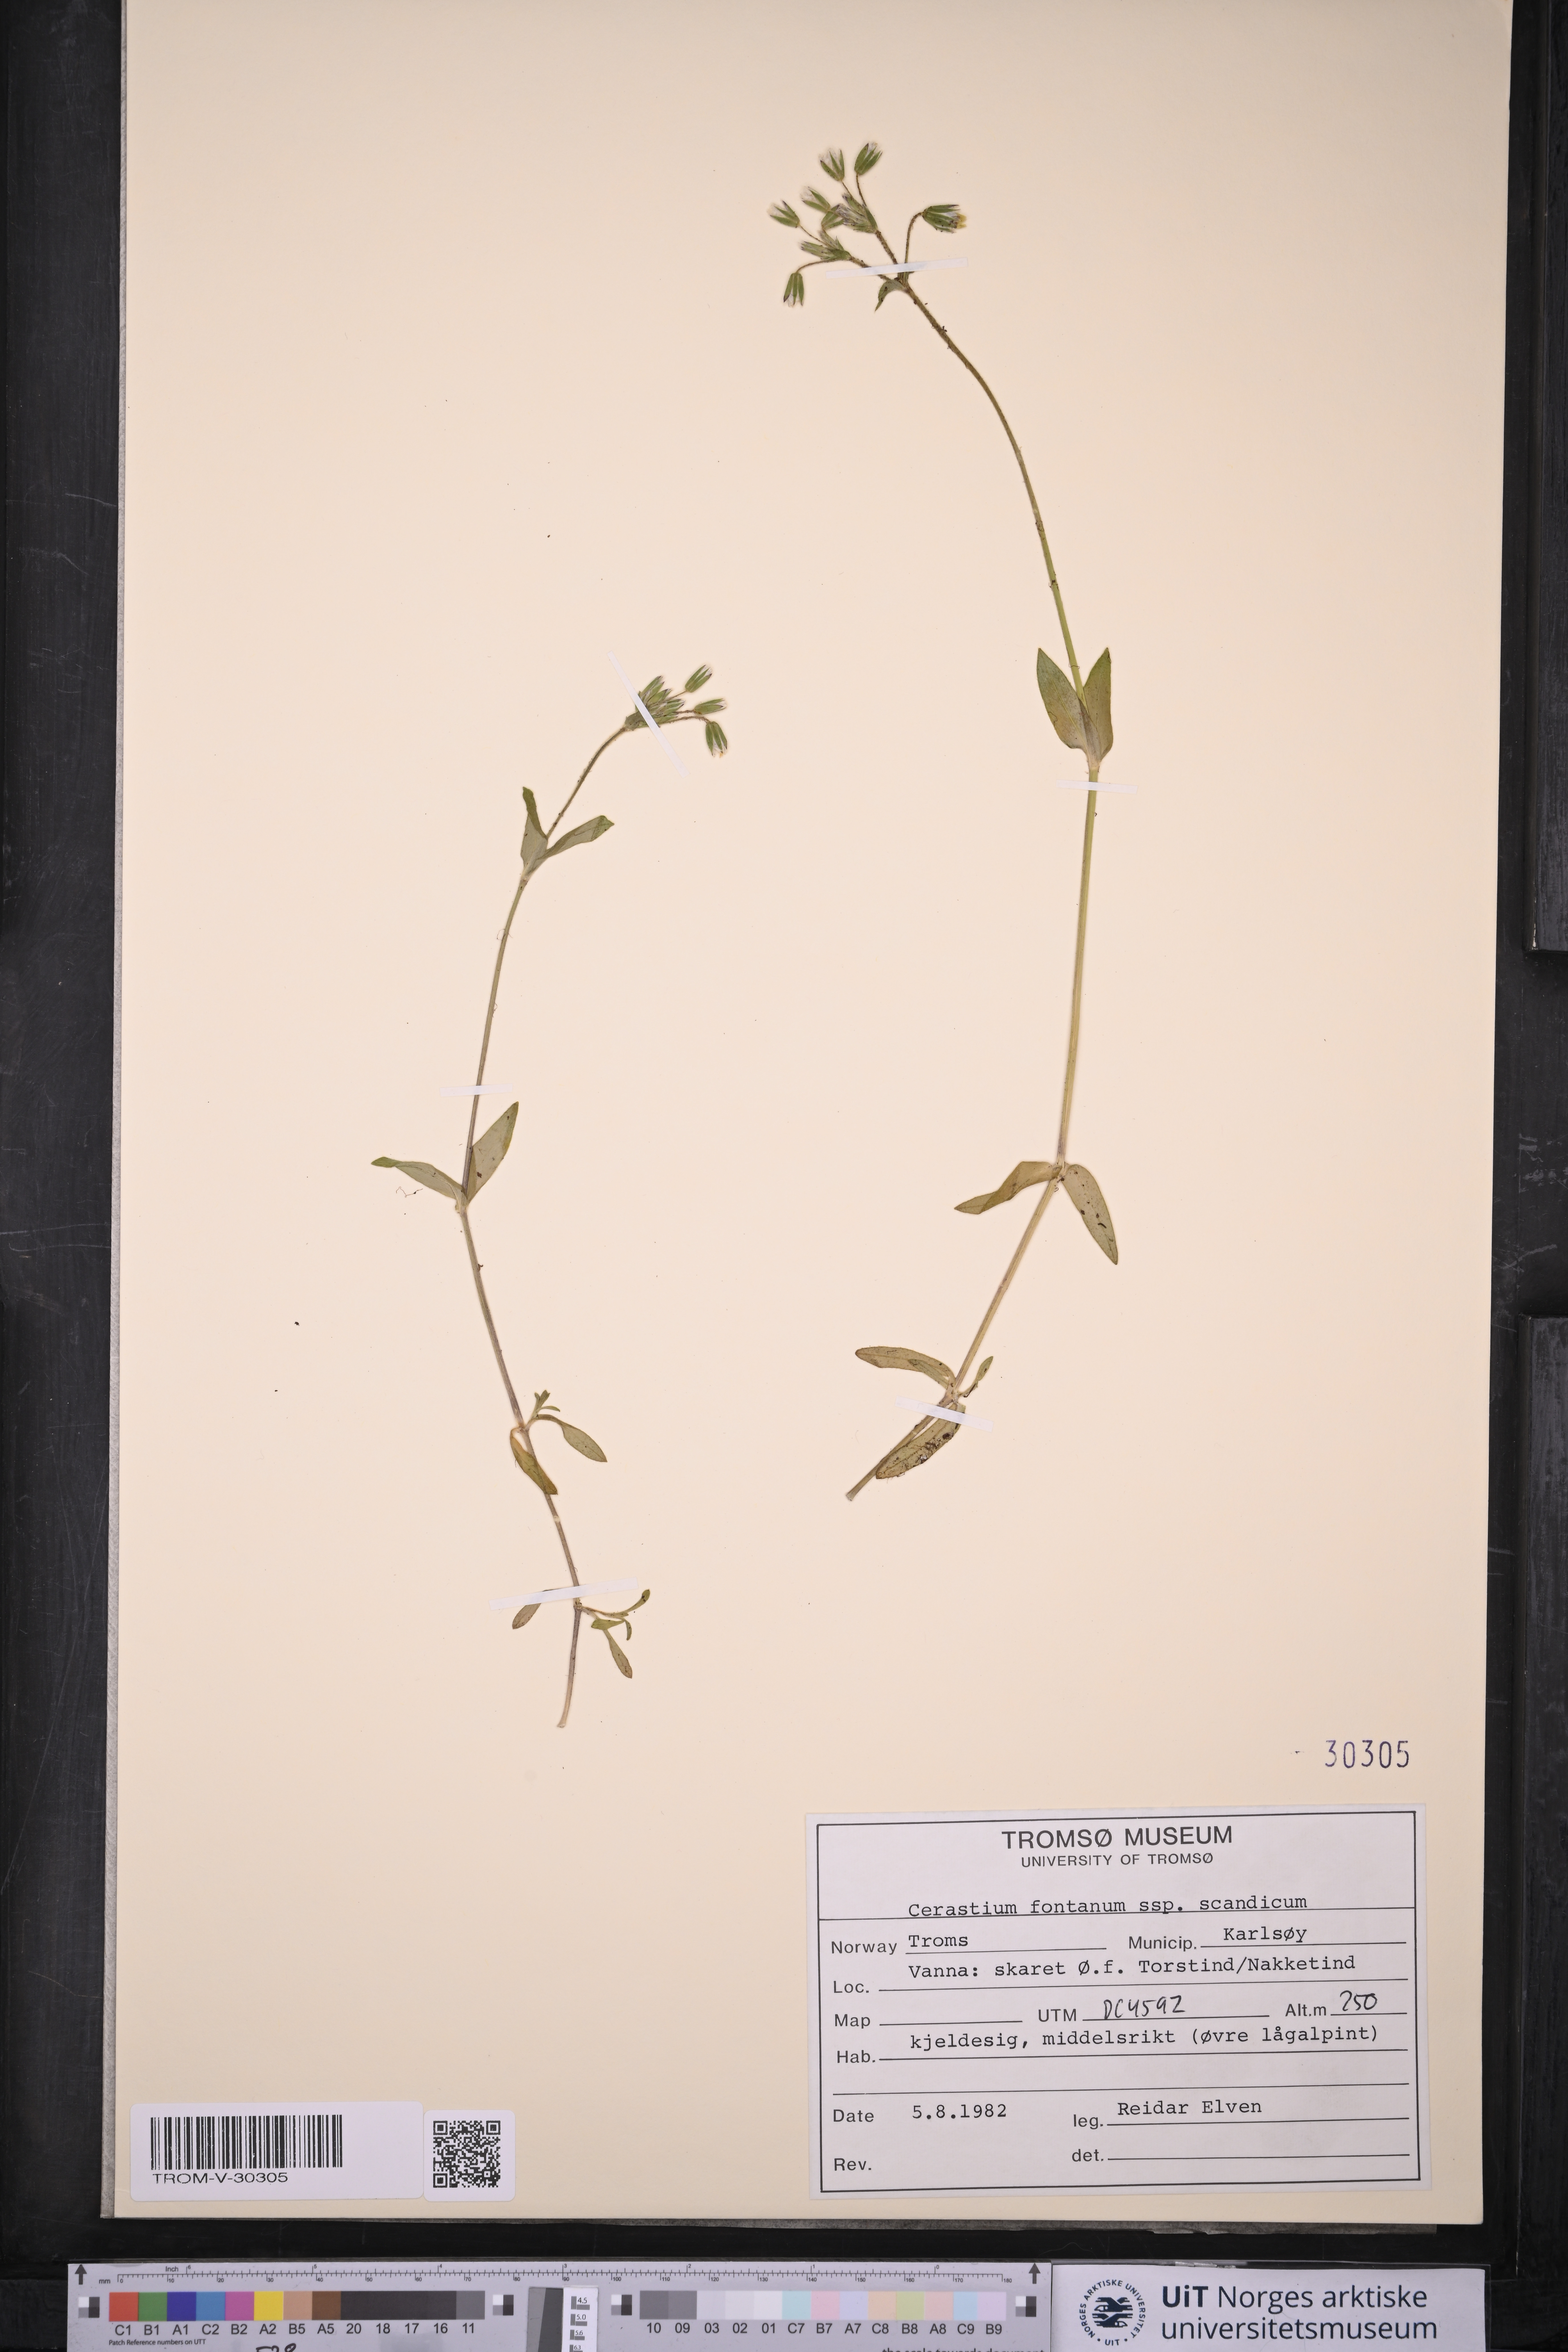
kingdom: Plantae
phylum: Tracheophyta
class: Magnoliopsida
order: Caryophyllales
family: Caryophyllaceae
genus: Cerastium
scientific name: Cerastium fontanum
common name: Common mouse-ear
